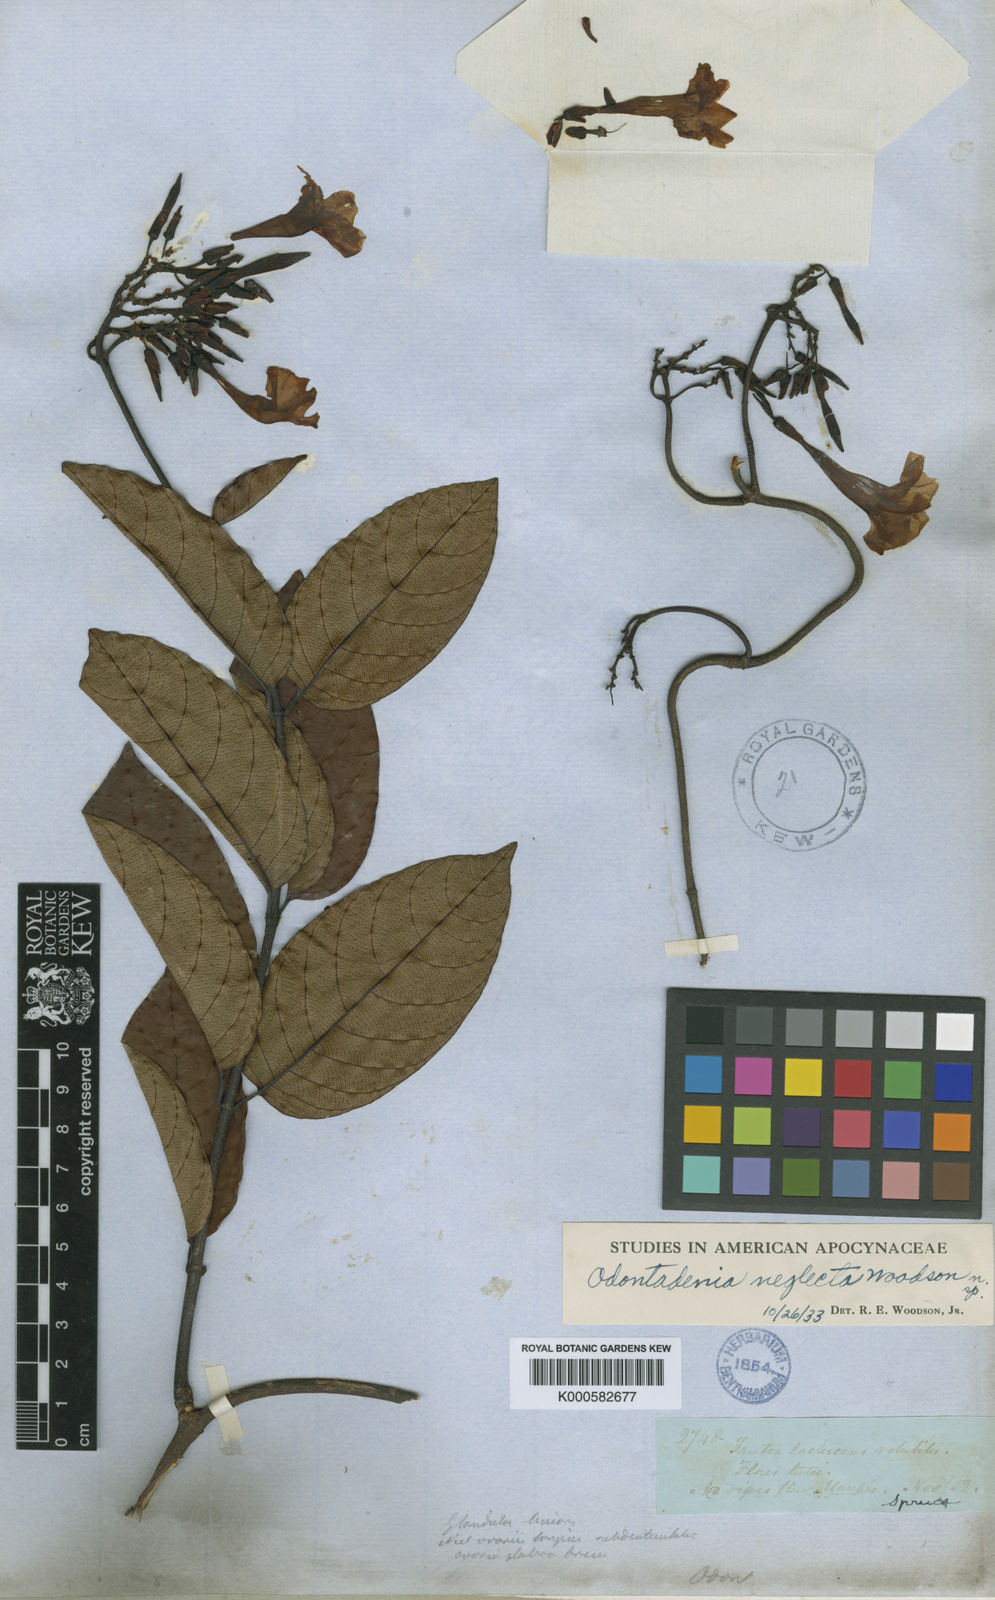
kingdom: Plantae
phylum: Tracheophyta
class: Magnoliopsida
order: Gentianales
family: Apocynaceae
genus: Odontadenia
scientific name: Odontadenia verrucosa
